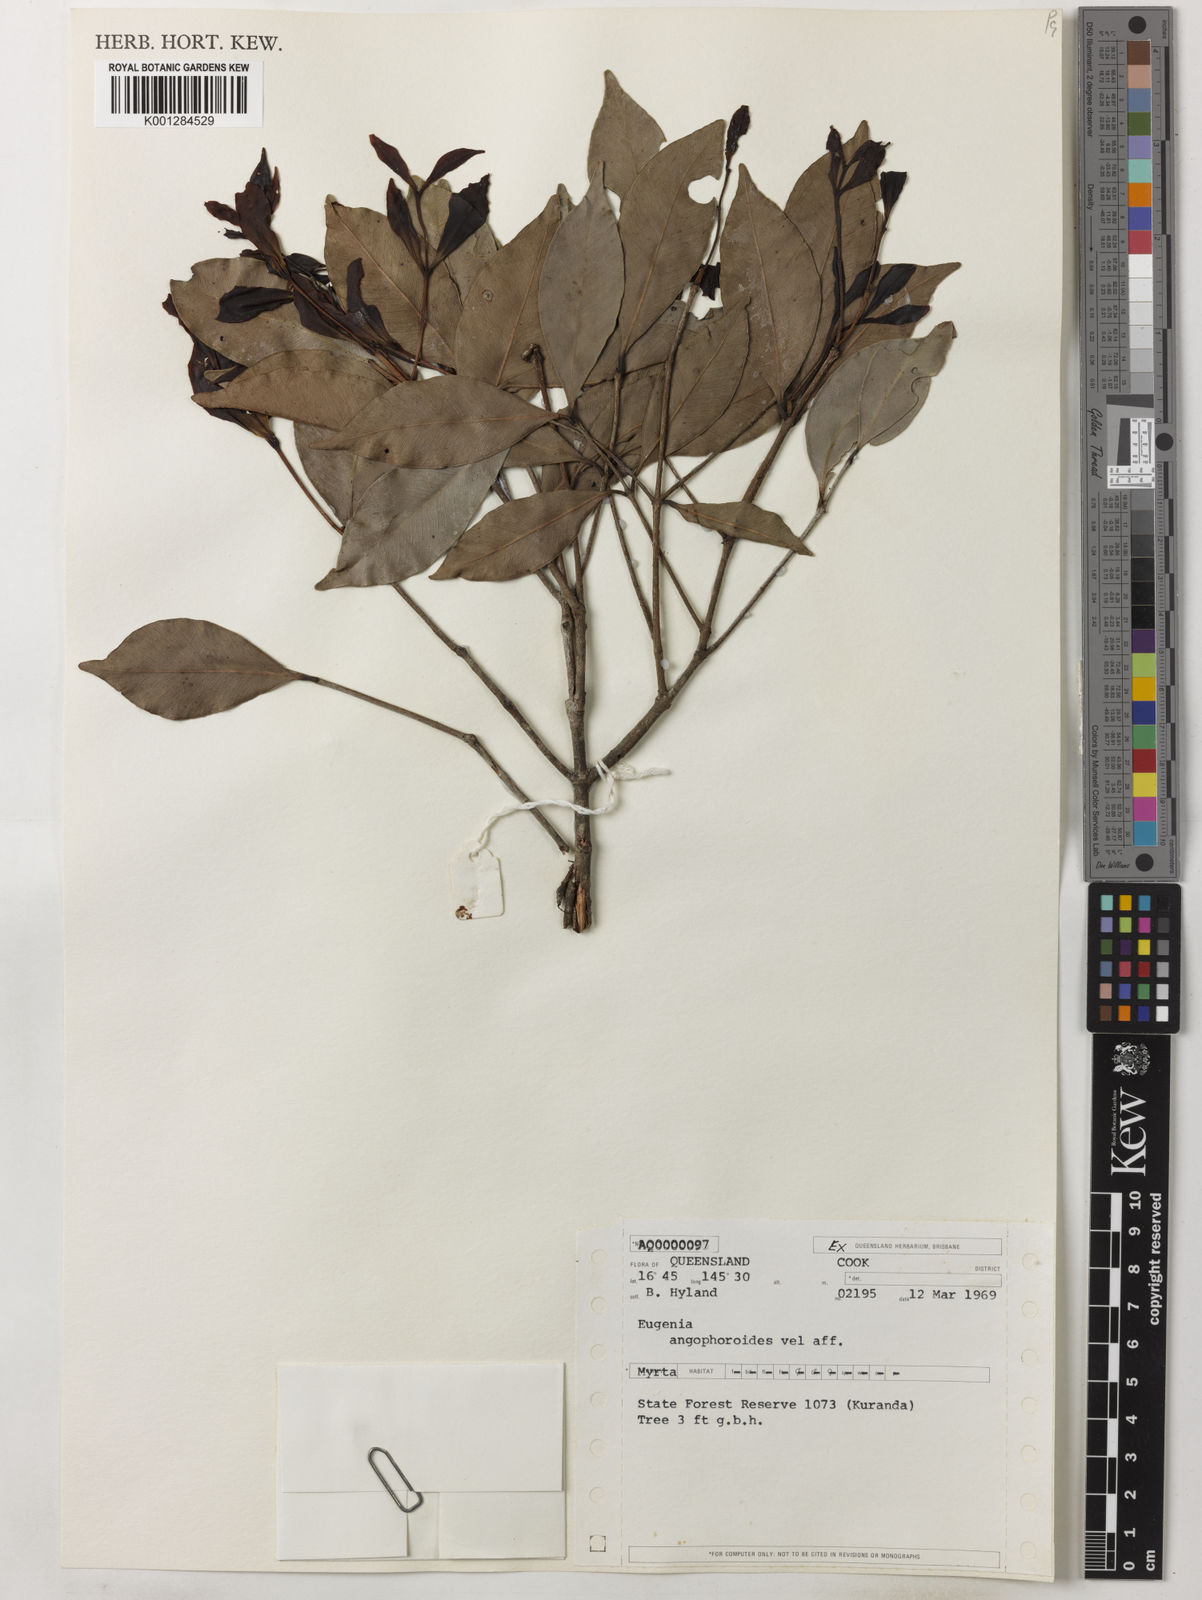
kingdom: Plantae
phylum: Tracheophyta
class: Magnoliopsida
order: Myrtales
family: Myrtaceae
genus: Syzygium
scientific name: Syzygium angophoroides
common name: Swamp satinash
